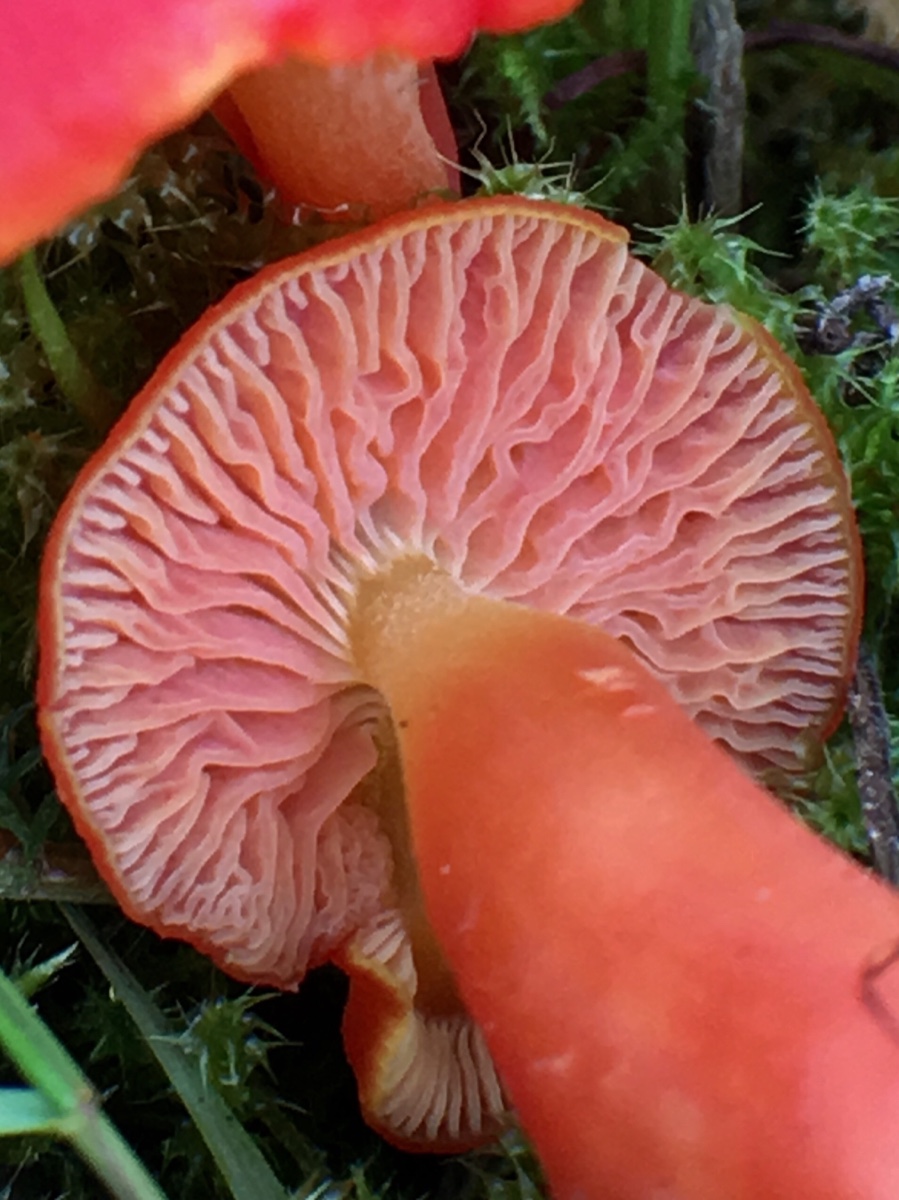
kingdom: Fungi
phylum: Basidiomycota
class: Agaricomycetes
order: Agaricales
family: Hygrophoraceae
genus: Hygrocybe
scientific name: Hygrocybe
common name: vokshat
